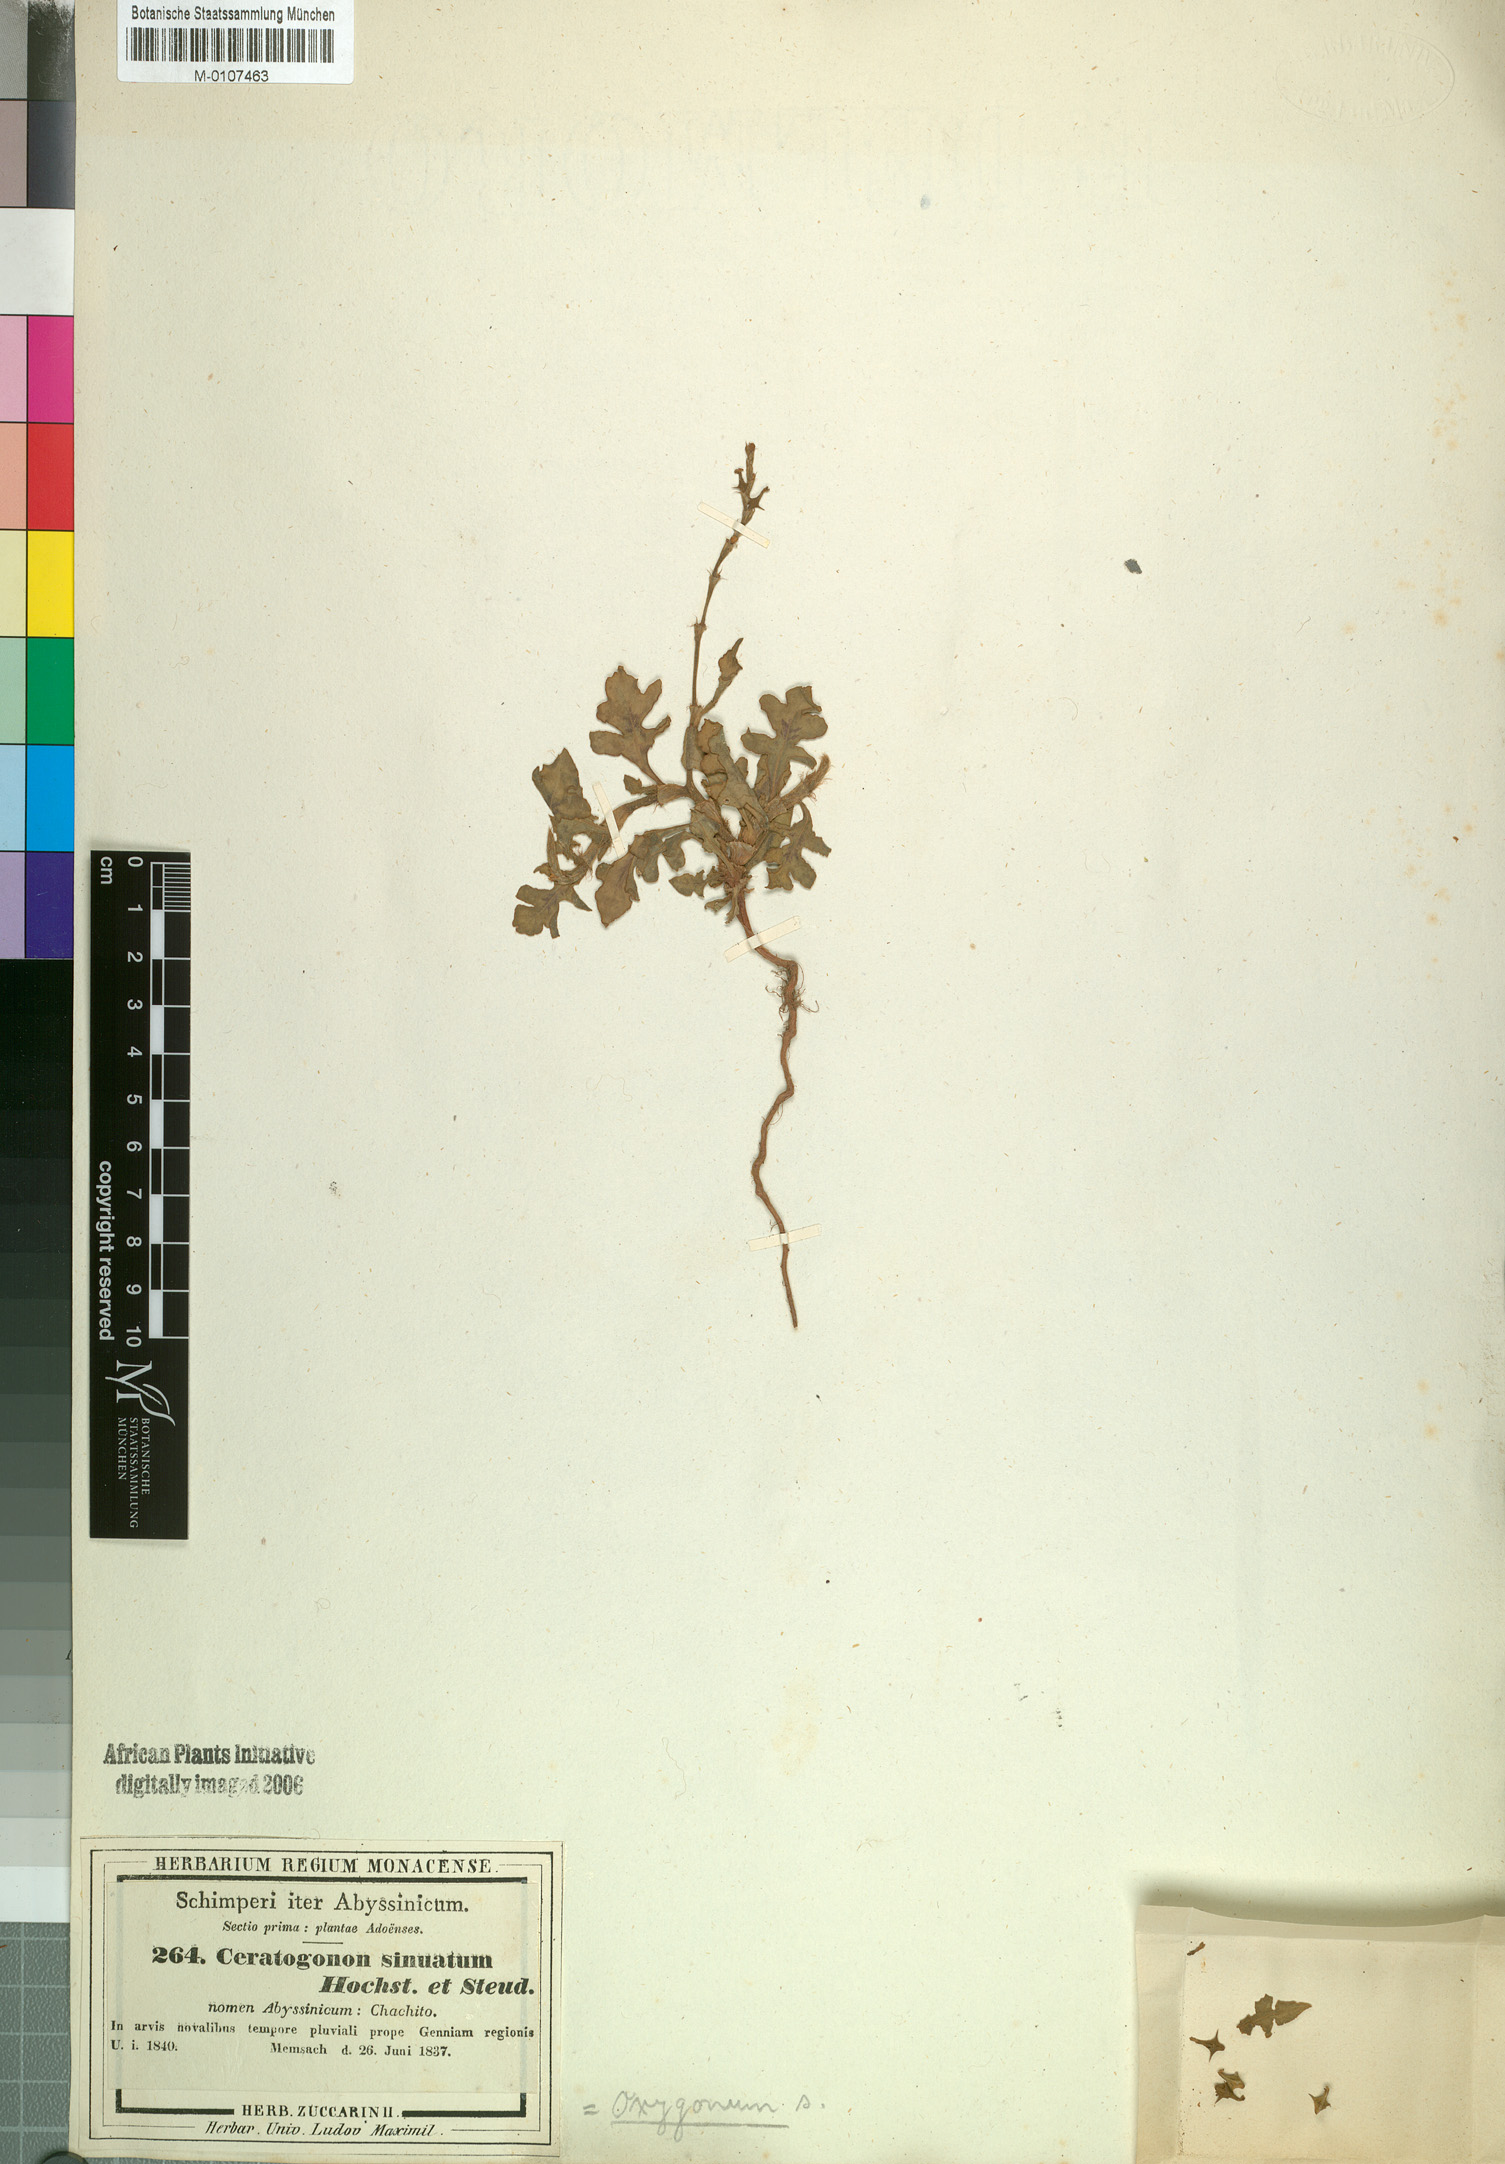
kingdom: Plantae
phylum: Tracheophyta
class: Magnoliopsida
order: Caryophyllales
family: Polygonaceae
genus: Oxygonum
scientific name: Oxygonum sinuatum
